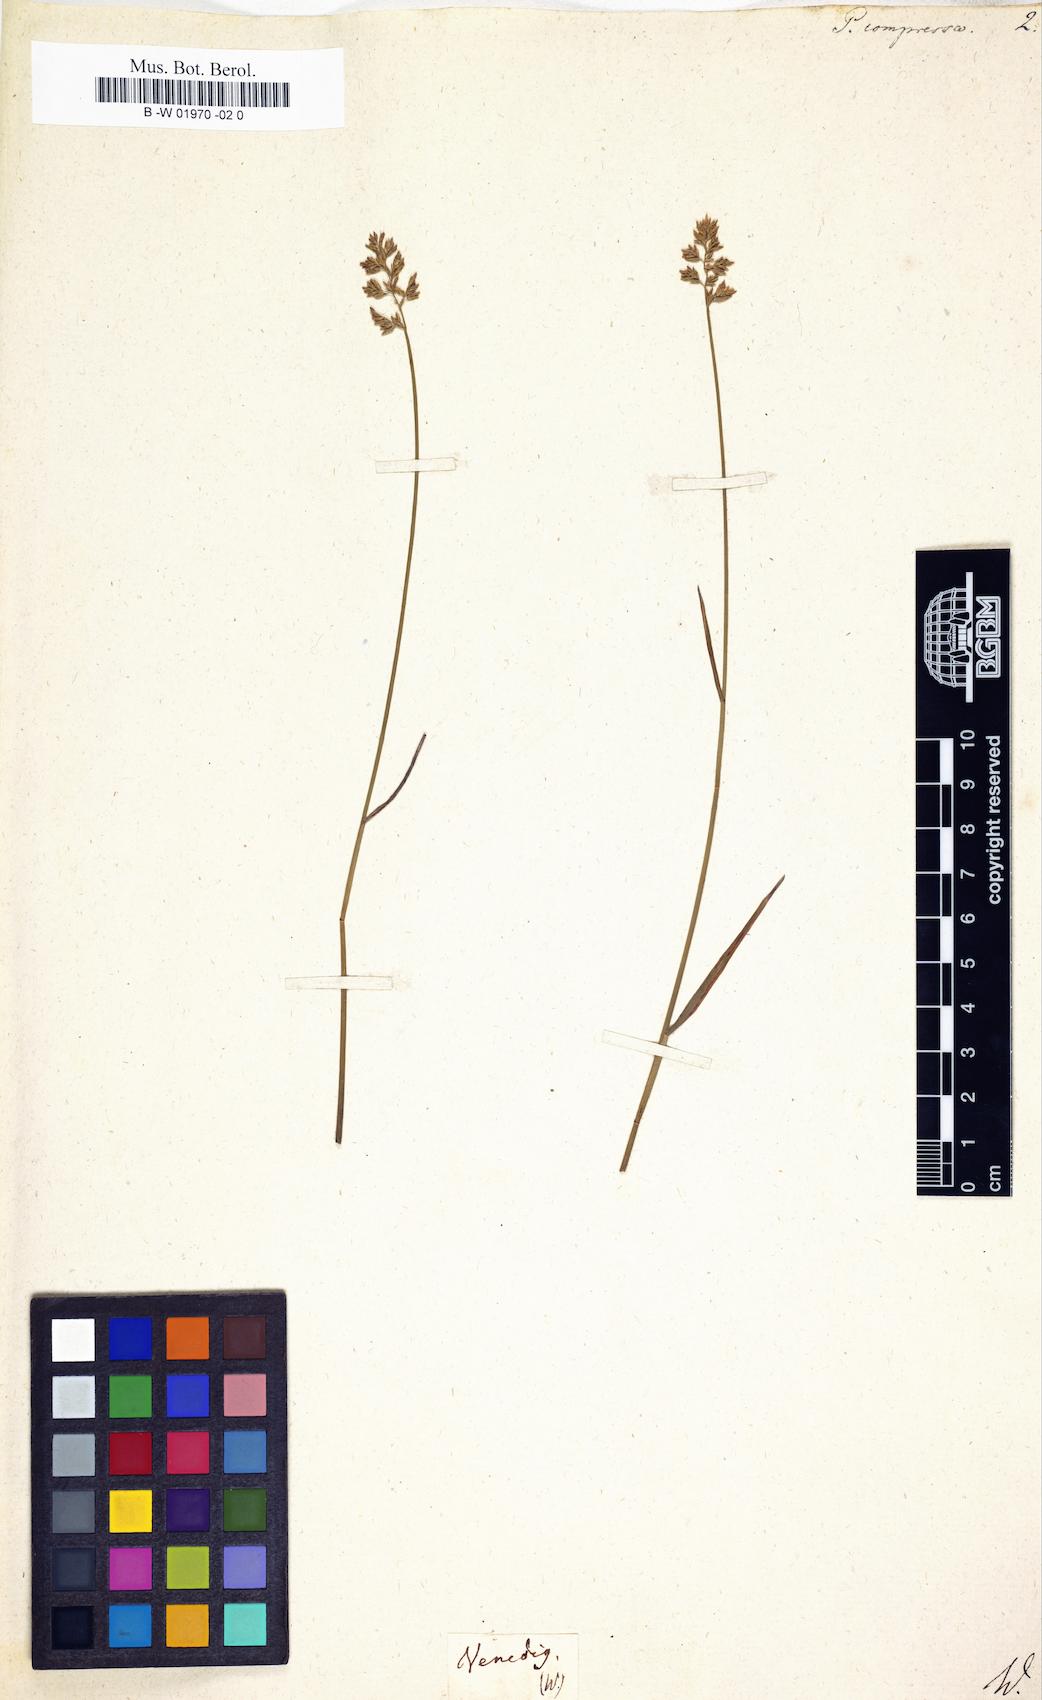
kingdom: Plantae
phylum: Tracheophyta
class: Liliopsida
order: Poales
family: Poaceae
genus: Poa
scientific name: Poa compressa
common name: Canada bluegrass
